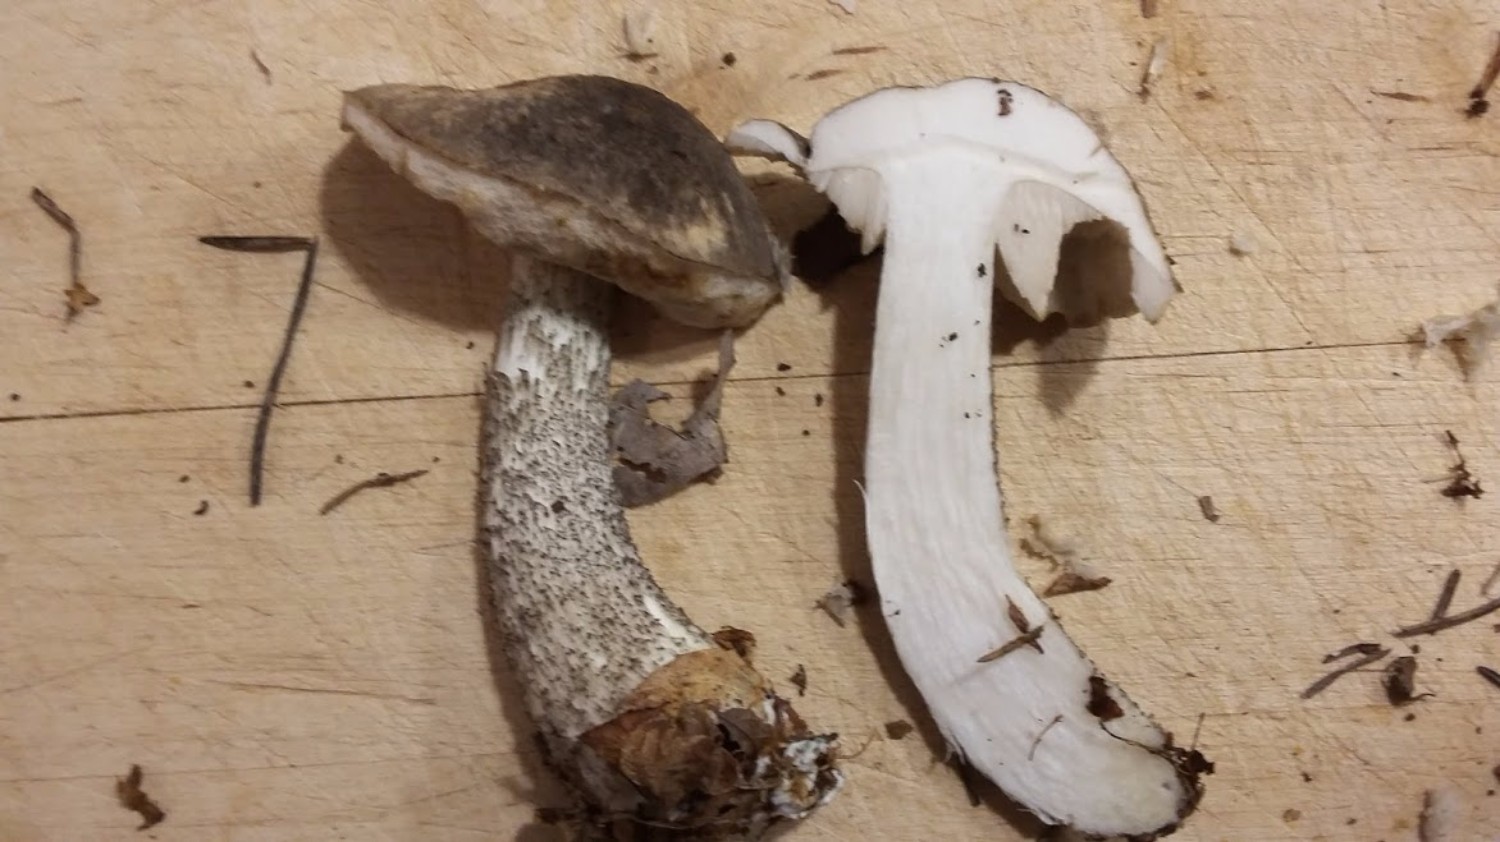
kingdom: Fungi
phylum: Basidiomycota
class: Agaricomycetes
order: Boletales
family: Boletaceae
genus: Leccinum
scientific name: Leccinum variicolor
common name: flammet skælrørhat
